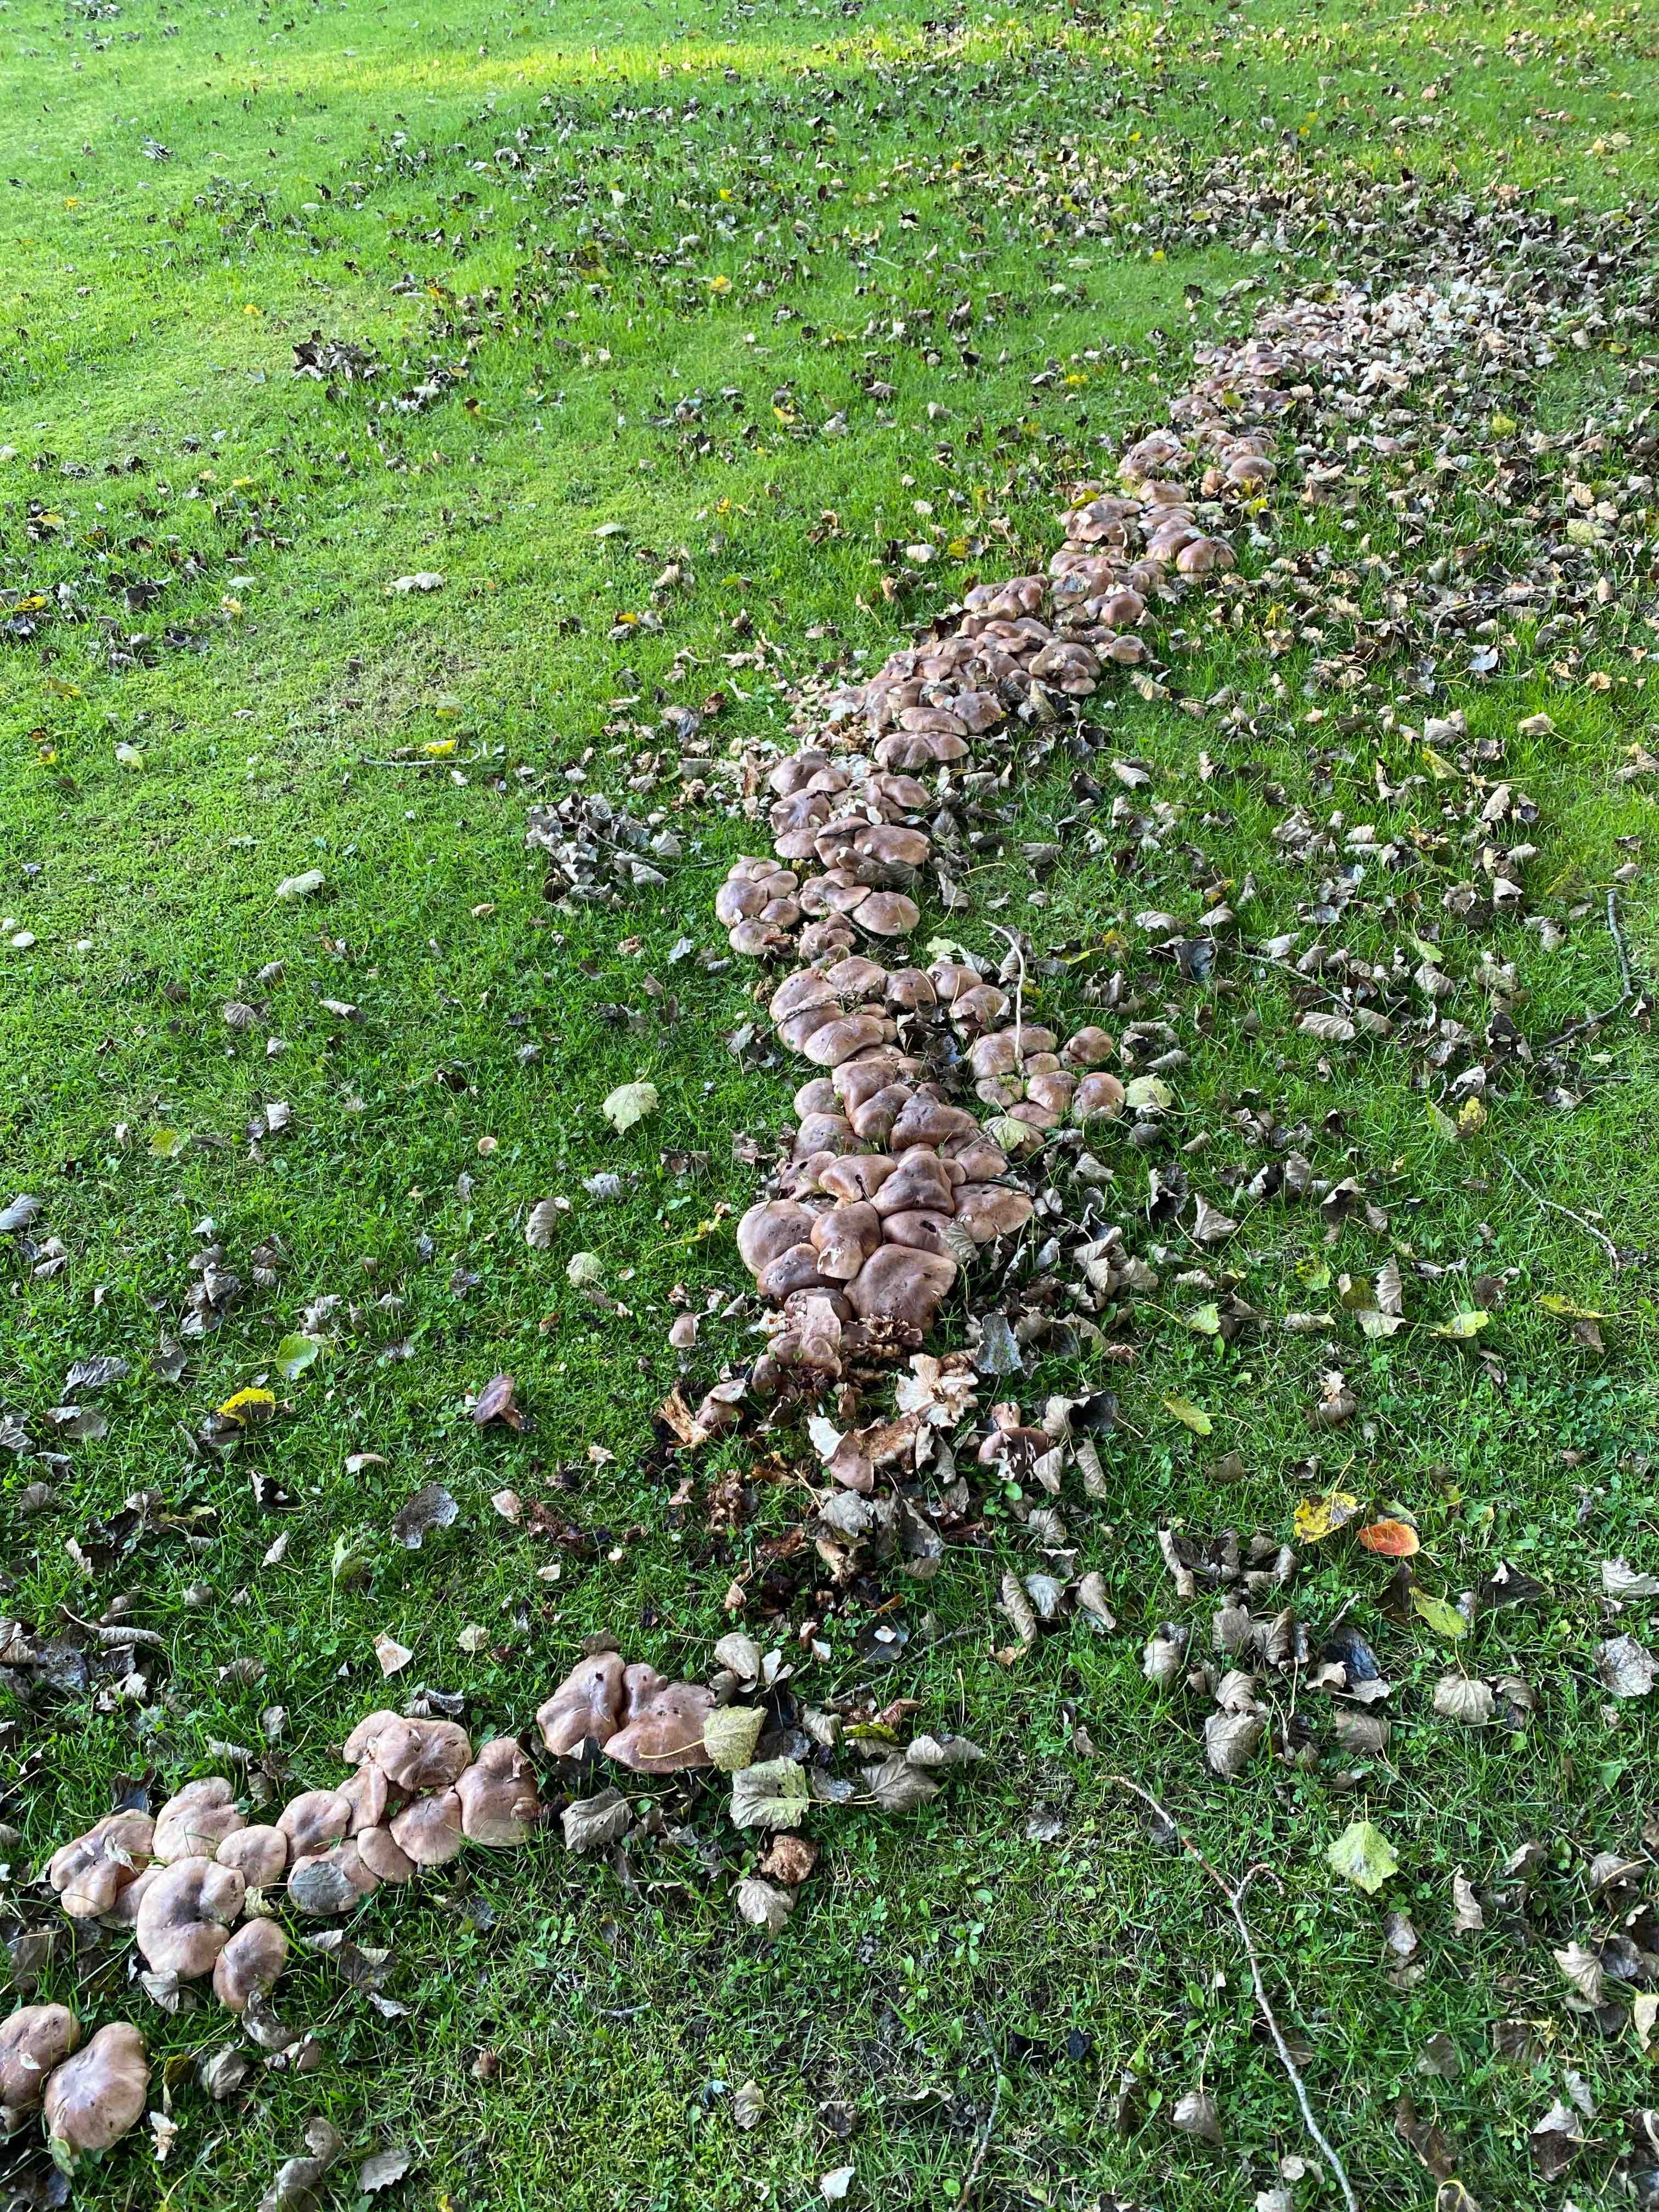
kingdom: Fungi
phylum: Basidiomycota
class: Agaricomycetes
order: Agaricales
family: Tricholomataceae
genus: Tricholoma
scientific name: Tricholoma populinum
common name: poppel-ridderhat
